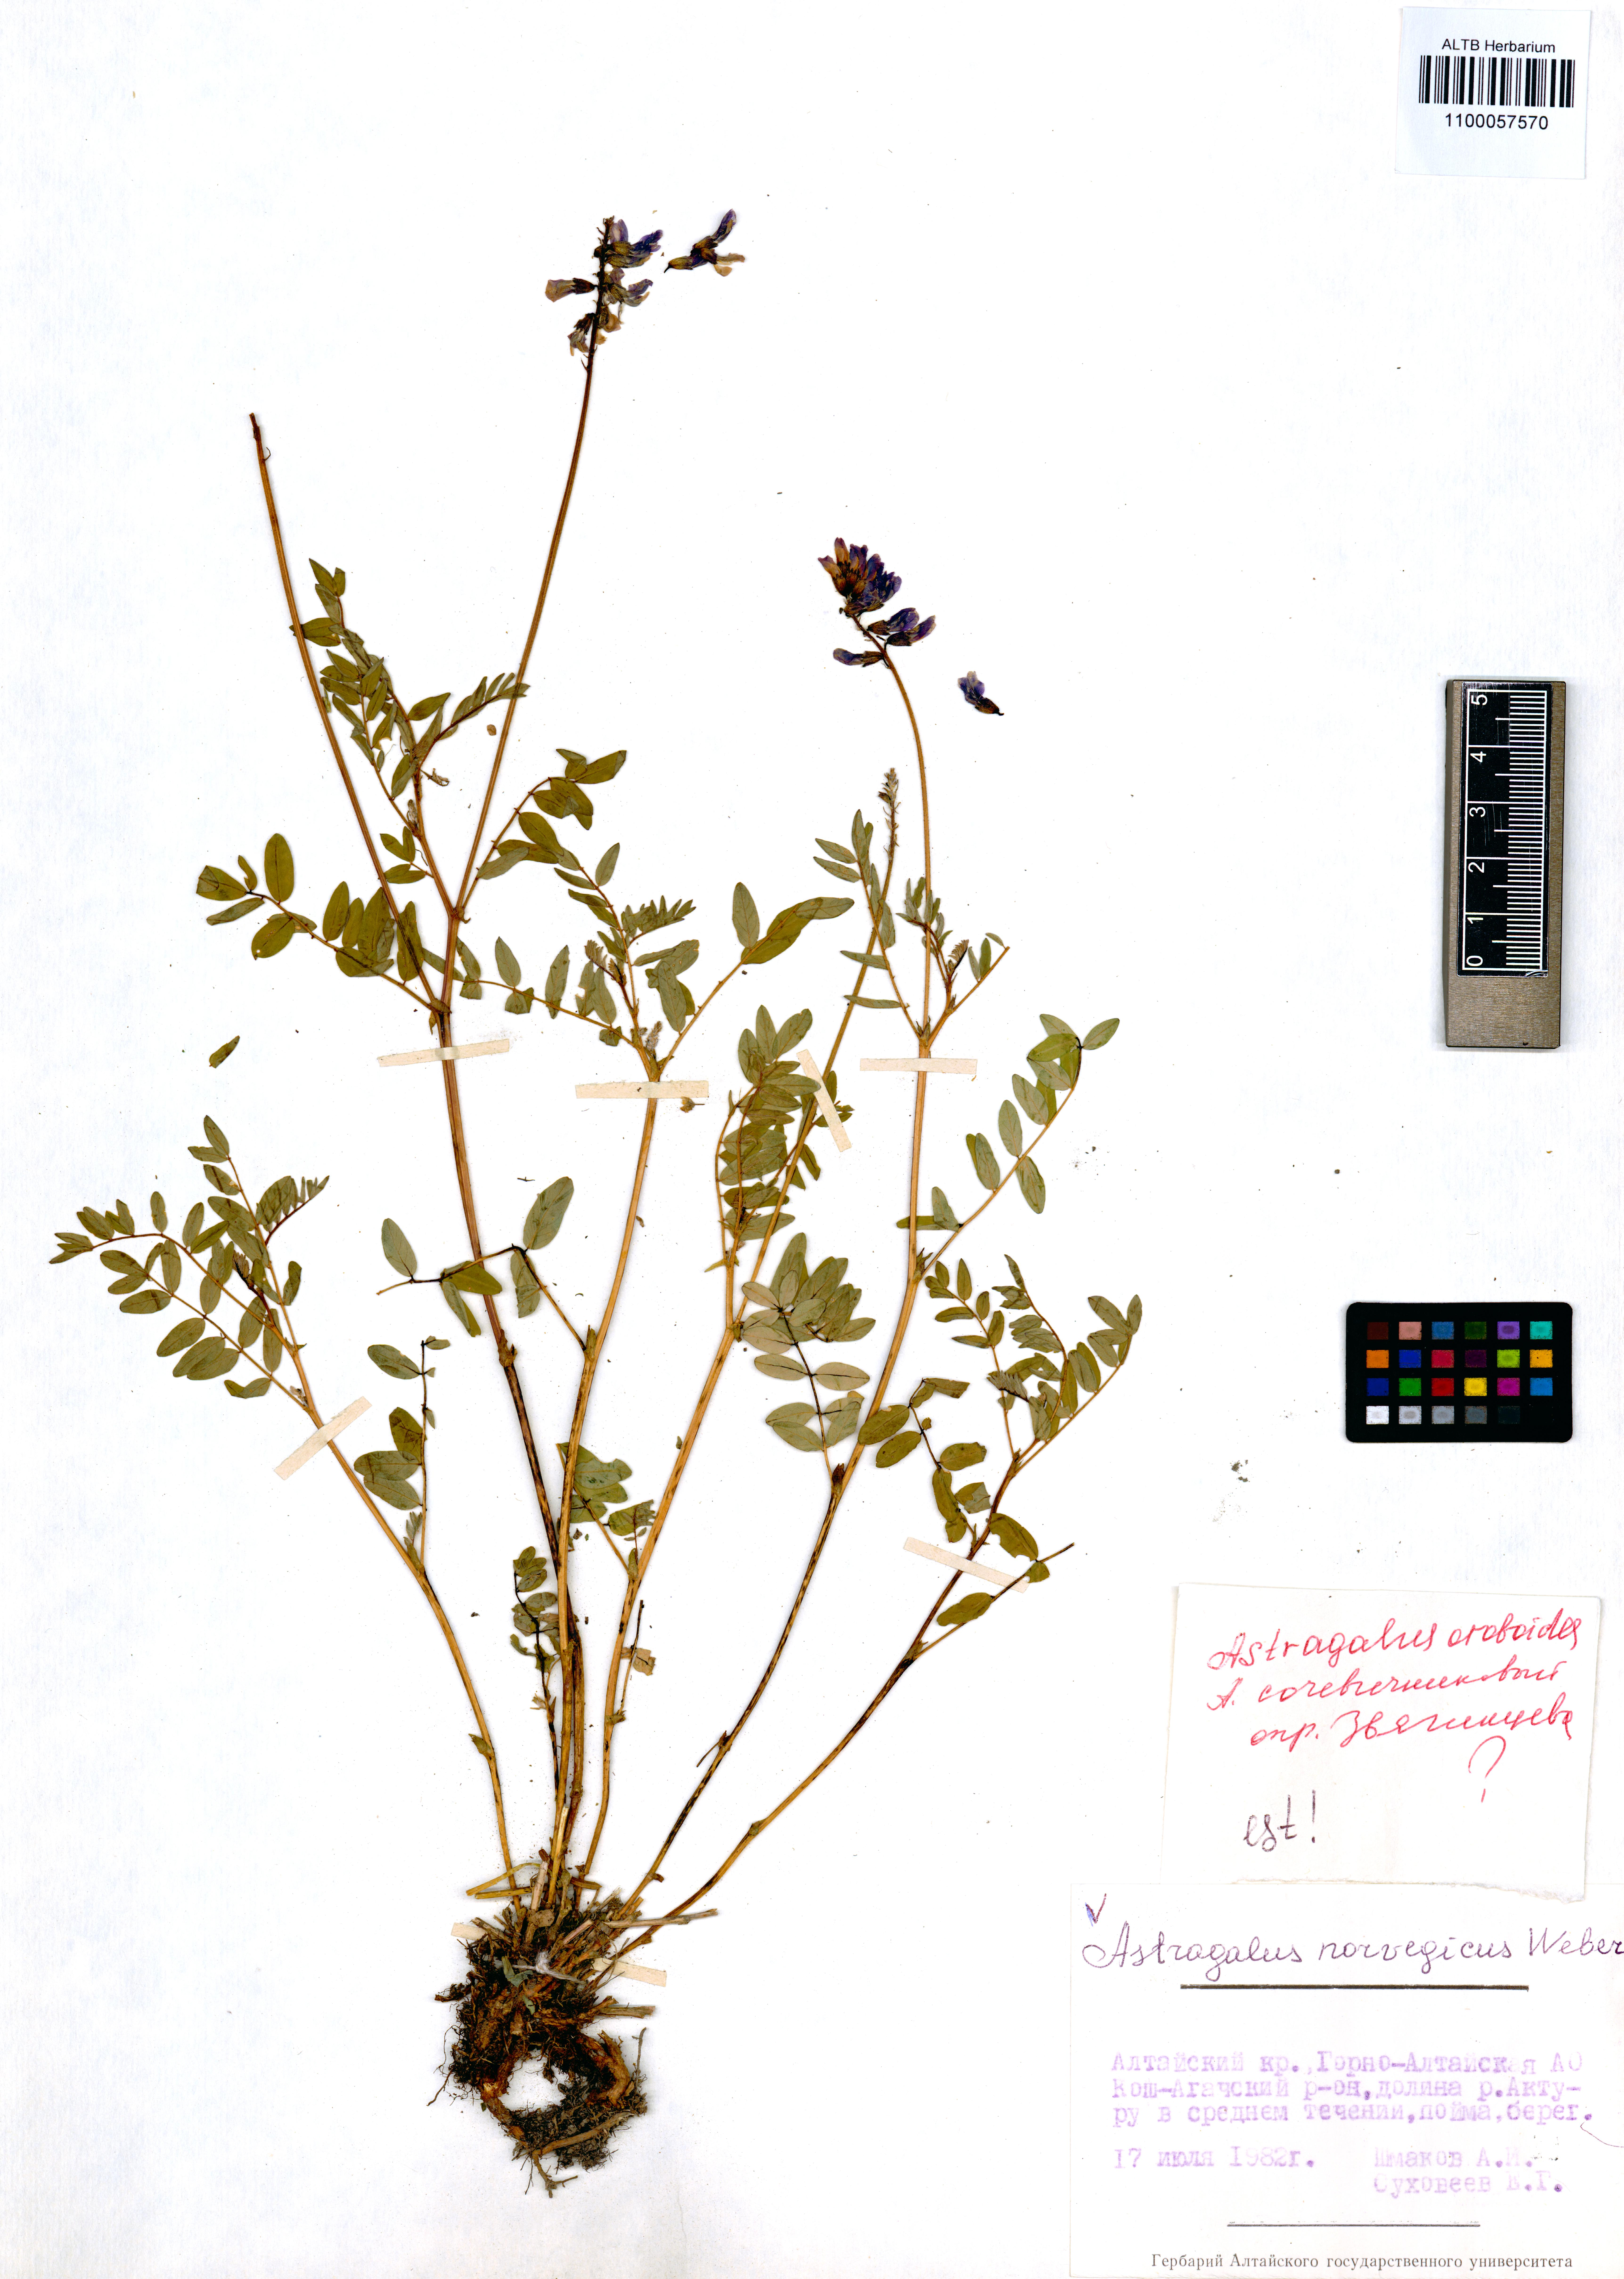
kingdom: Plantae
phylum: Tracheophyta
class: Magnoliopsida
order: Fabales
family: Fabaceae
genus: Astragalus
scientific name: Astragalus norvegicus
